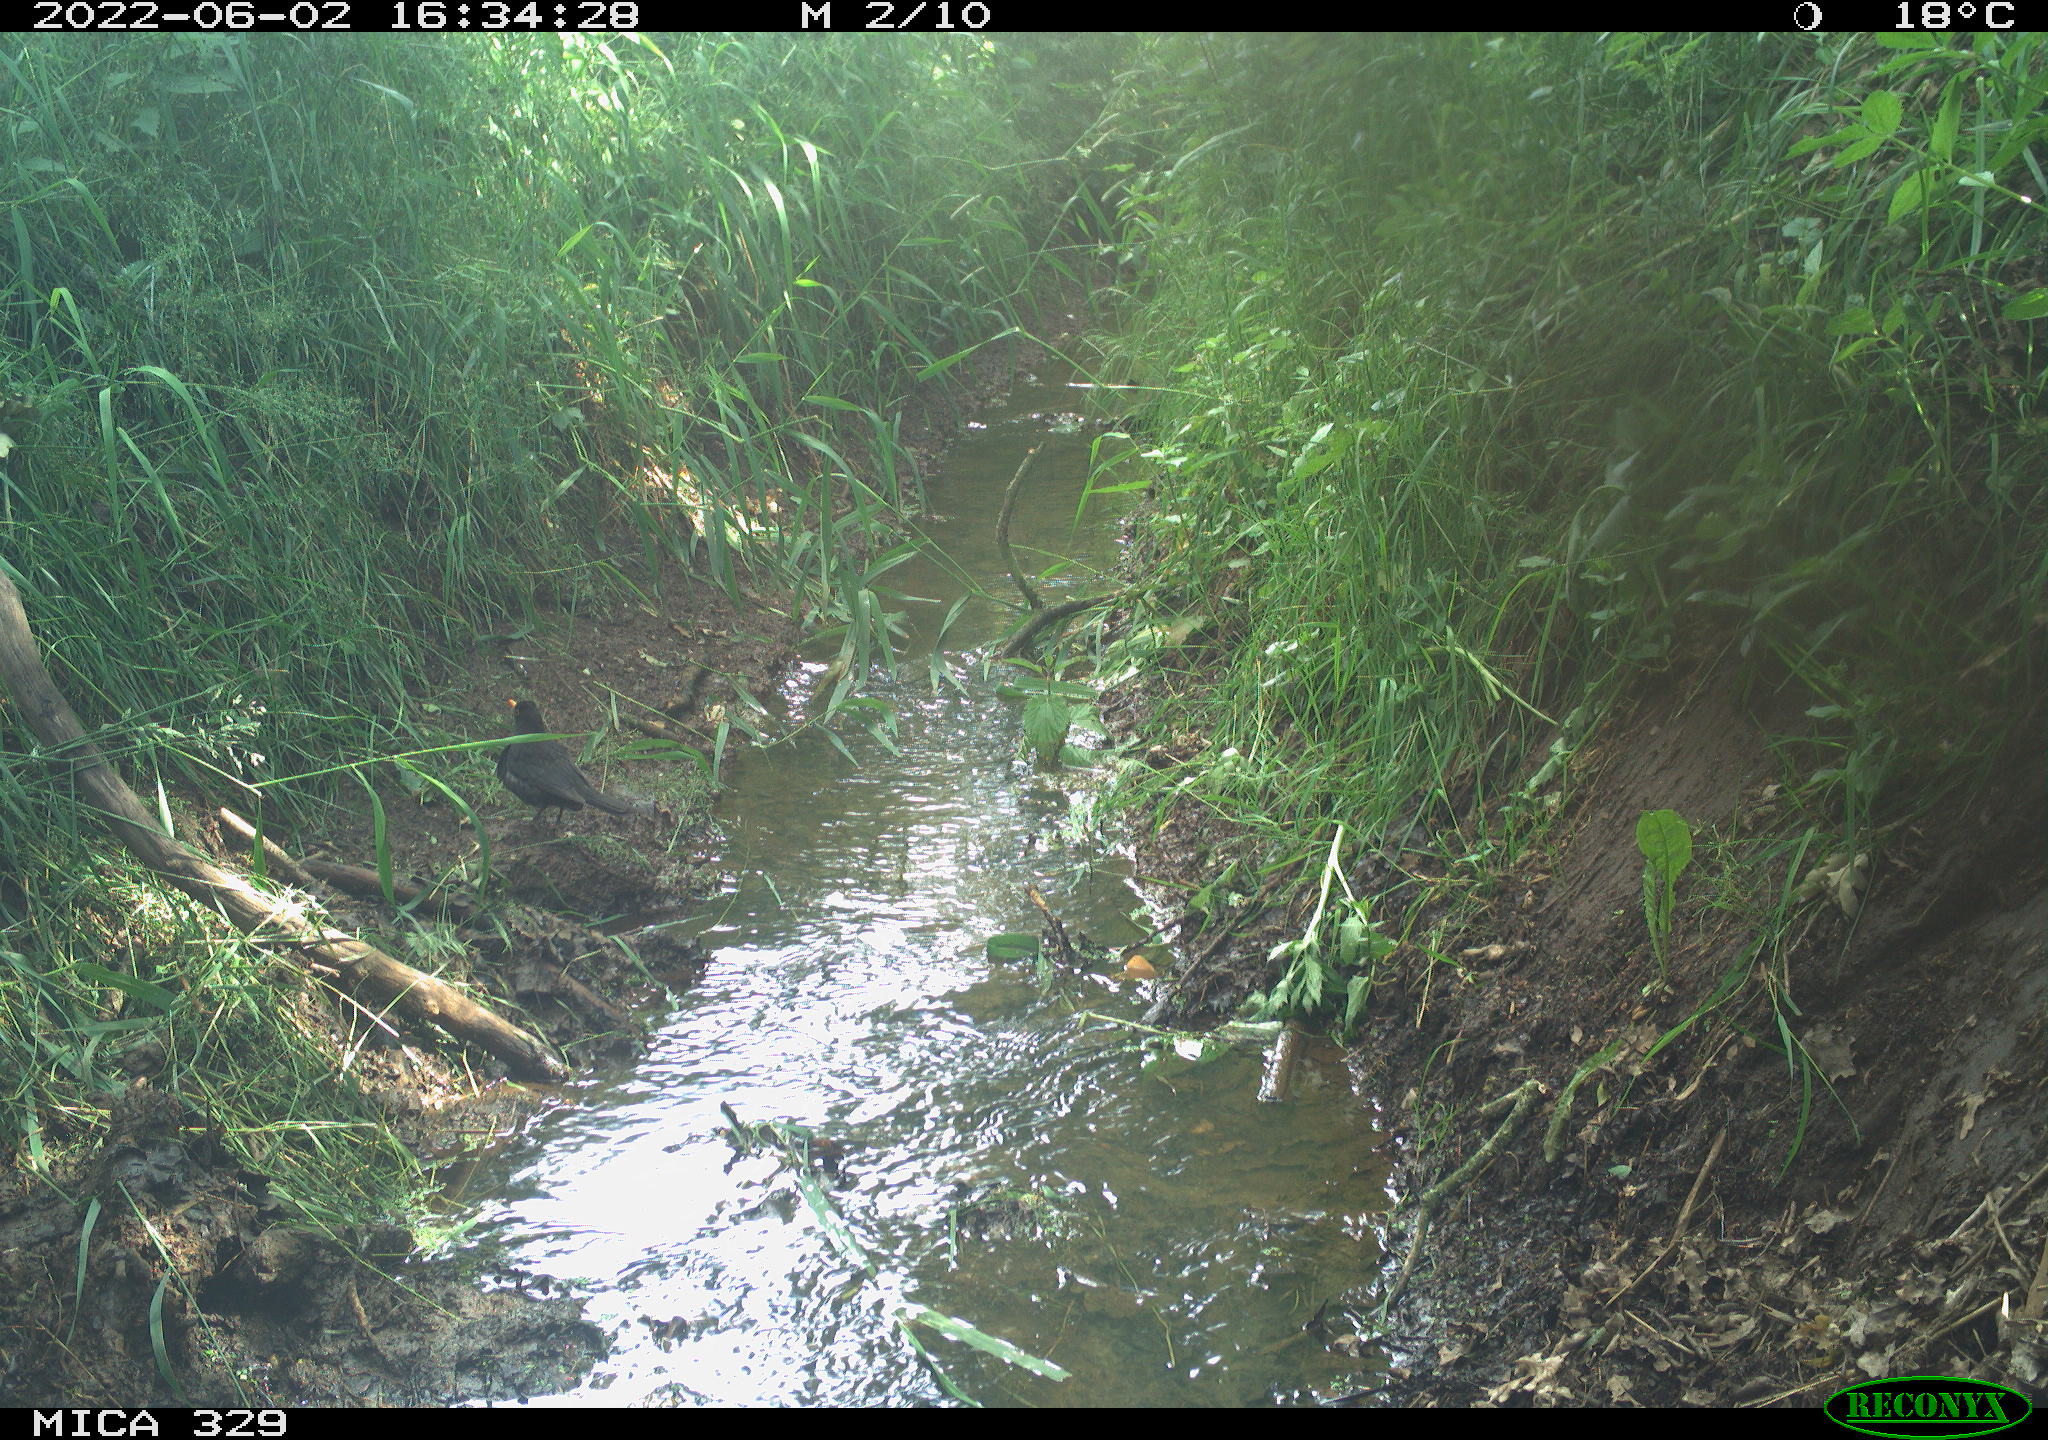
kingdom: Animalia
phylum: Chordata
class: Aves
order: Passeriformes
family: Turdidae
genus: Turdus
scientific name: Turdus merula
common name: Common blackbird
